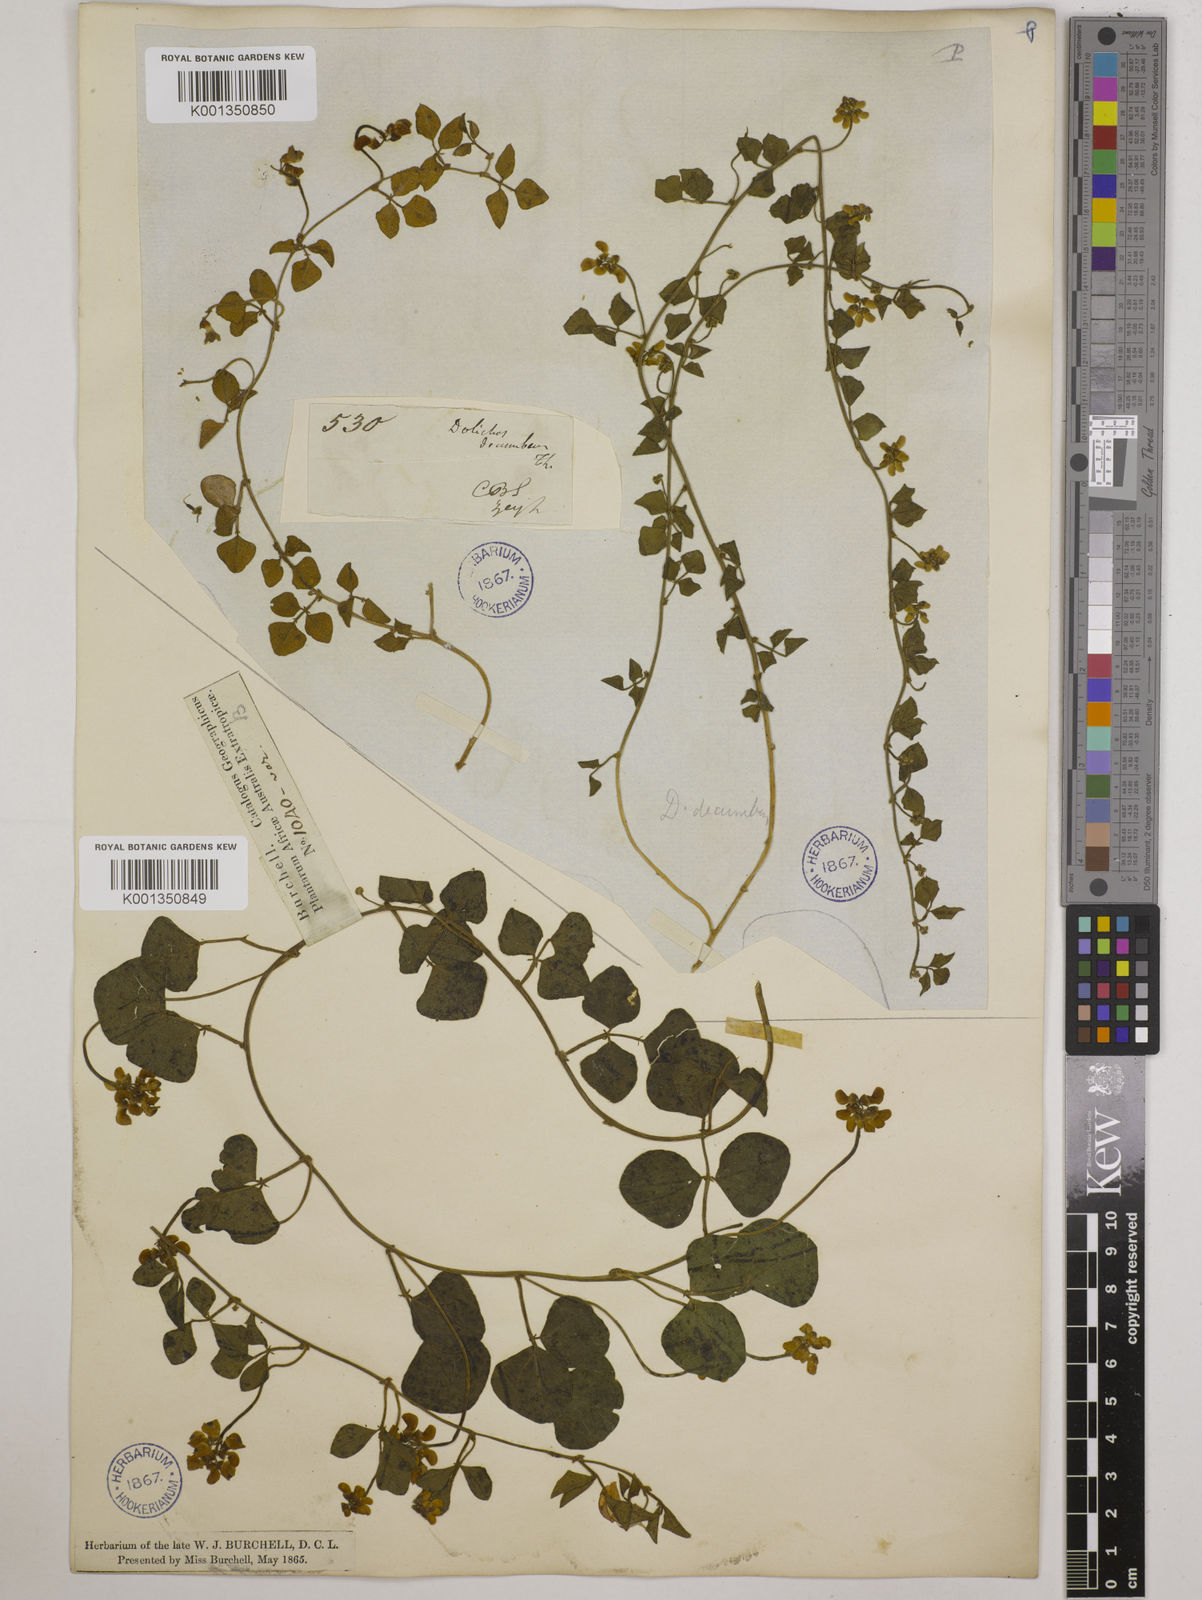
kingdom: Plantae
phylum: Tracheophyta
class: Magnoliopsida
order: Fabales
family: Fabaceae
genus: Dolichos
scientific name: Dolichos decumbens
